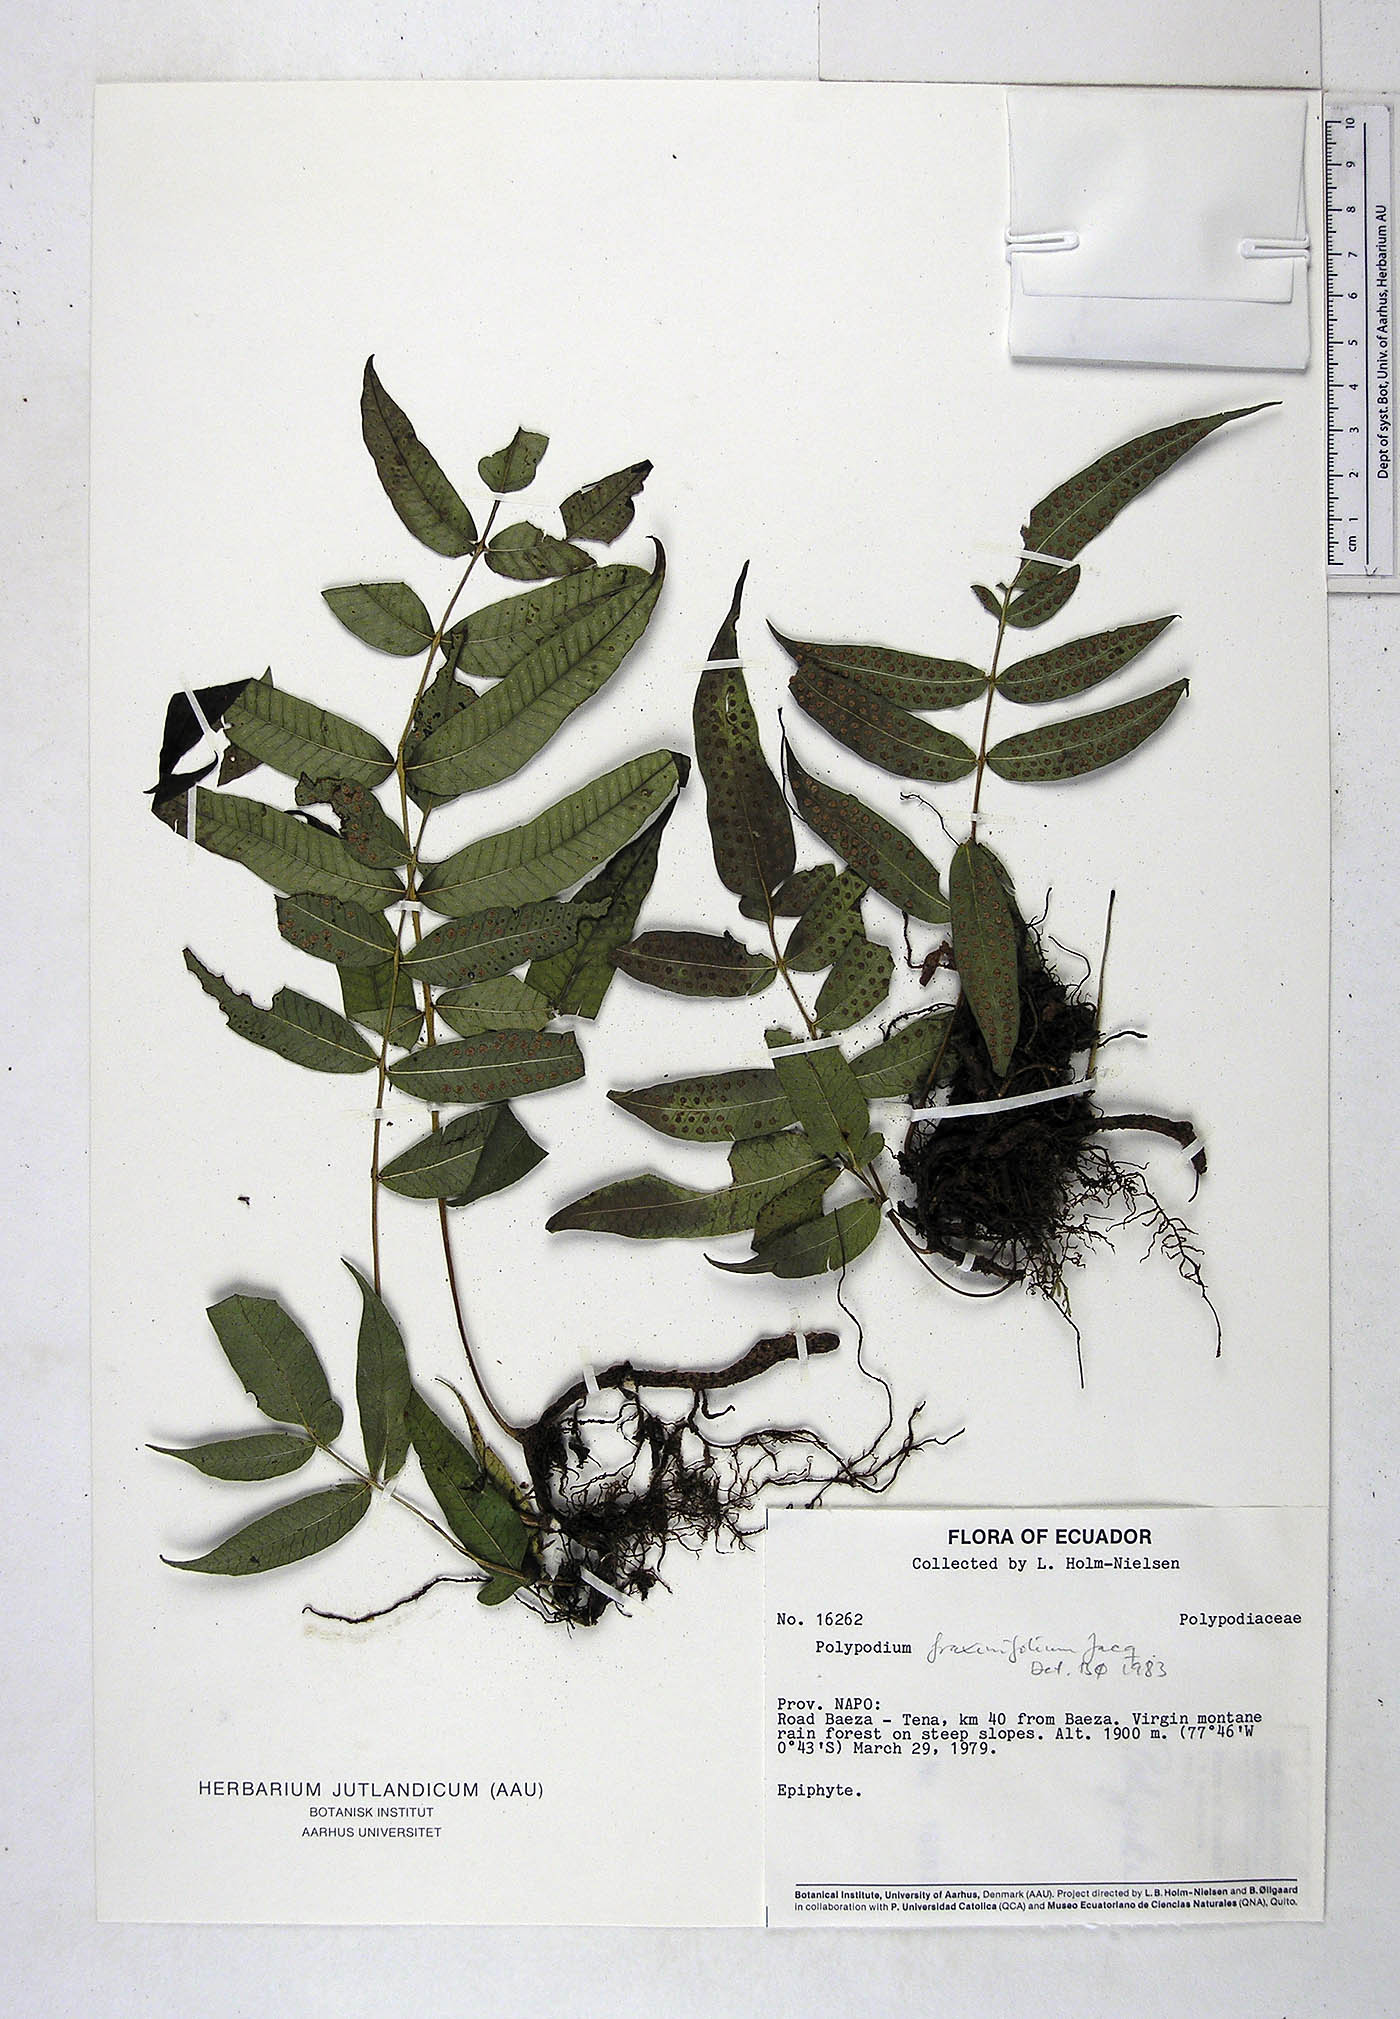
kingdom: Plantae
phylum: Tracheophyta
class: Polypodiopsida
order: Polypodiales
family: Polypodiaceae
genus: Serpocaulon
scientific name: Serpocaulon fraxinifolium
